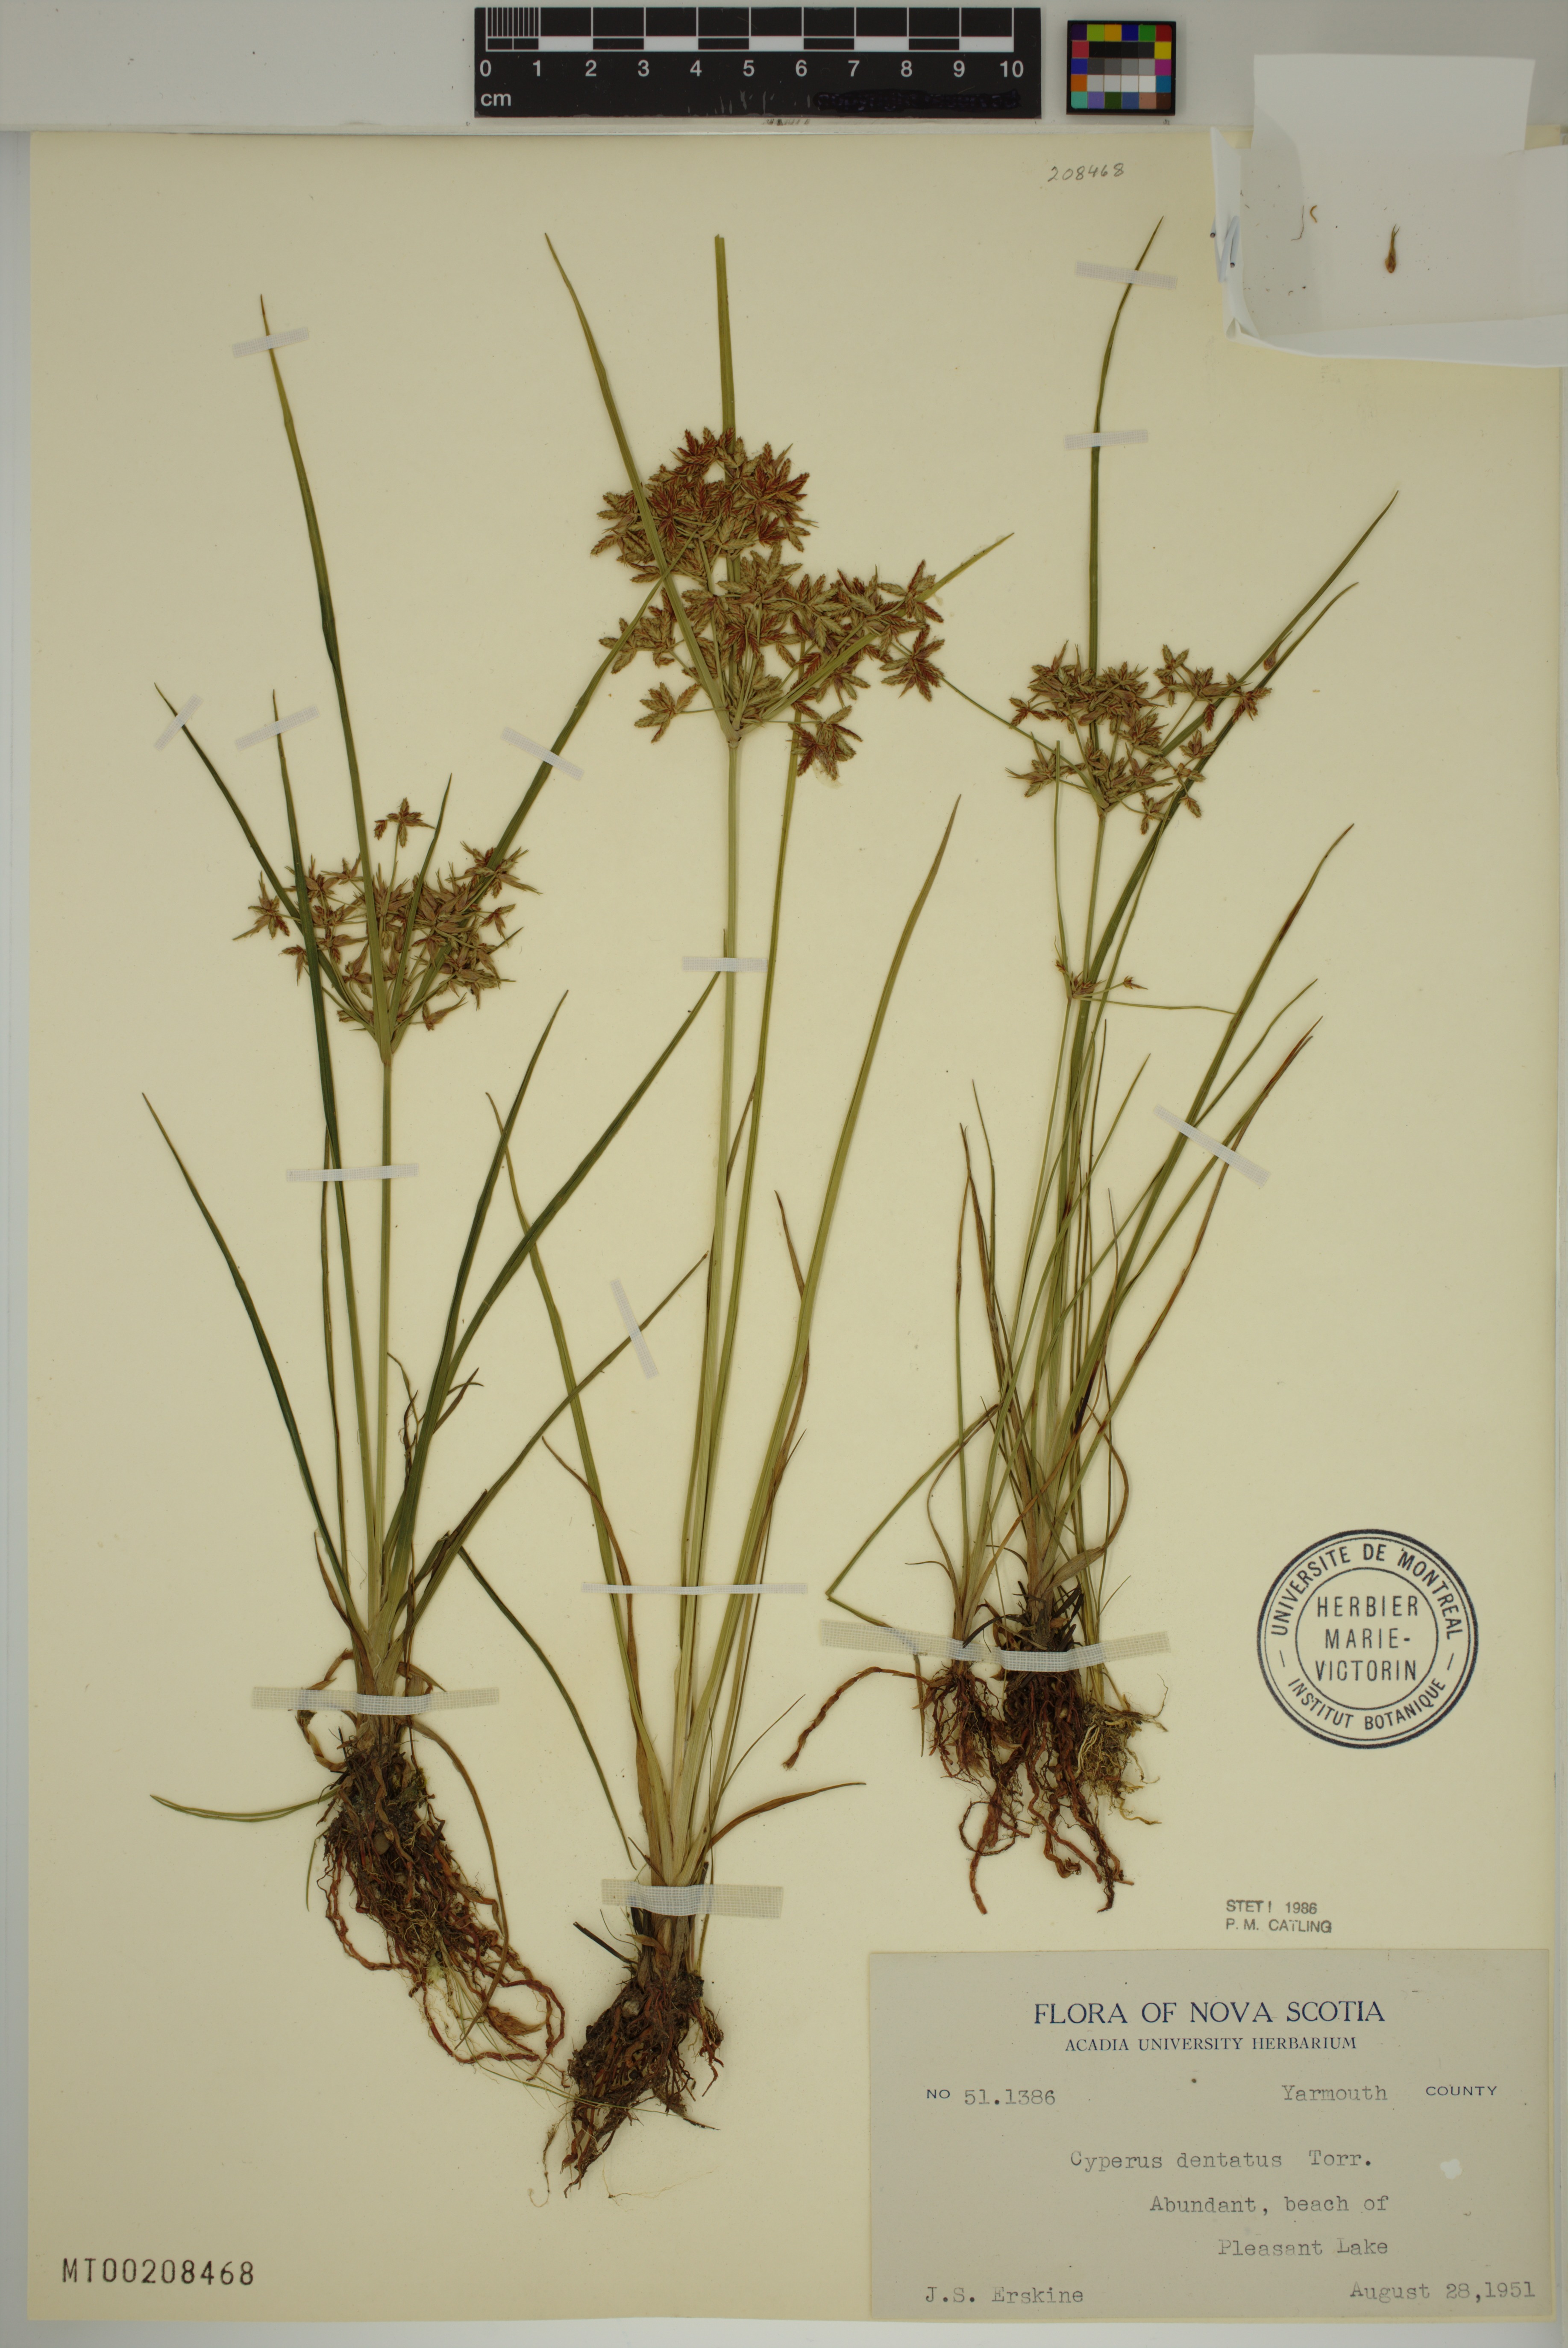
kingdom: Plantae
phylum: Tracheophyta
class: Liliopsida
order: Poales
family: Cyperaceae
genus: Cyperus
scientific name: Cyperus dentatus
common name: Dentate umbrella sedge
